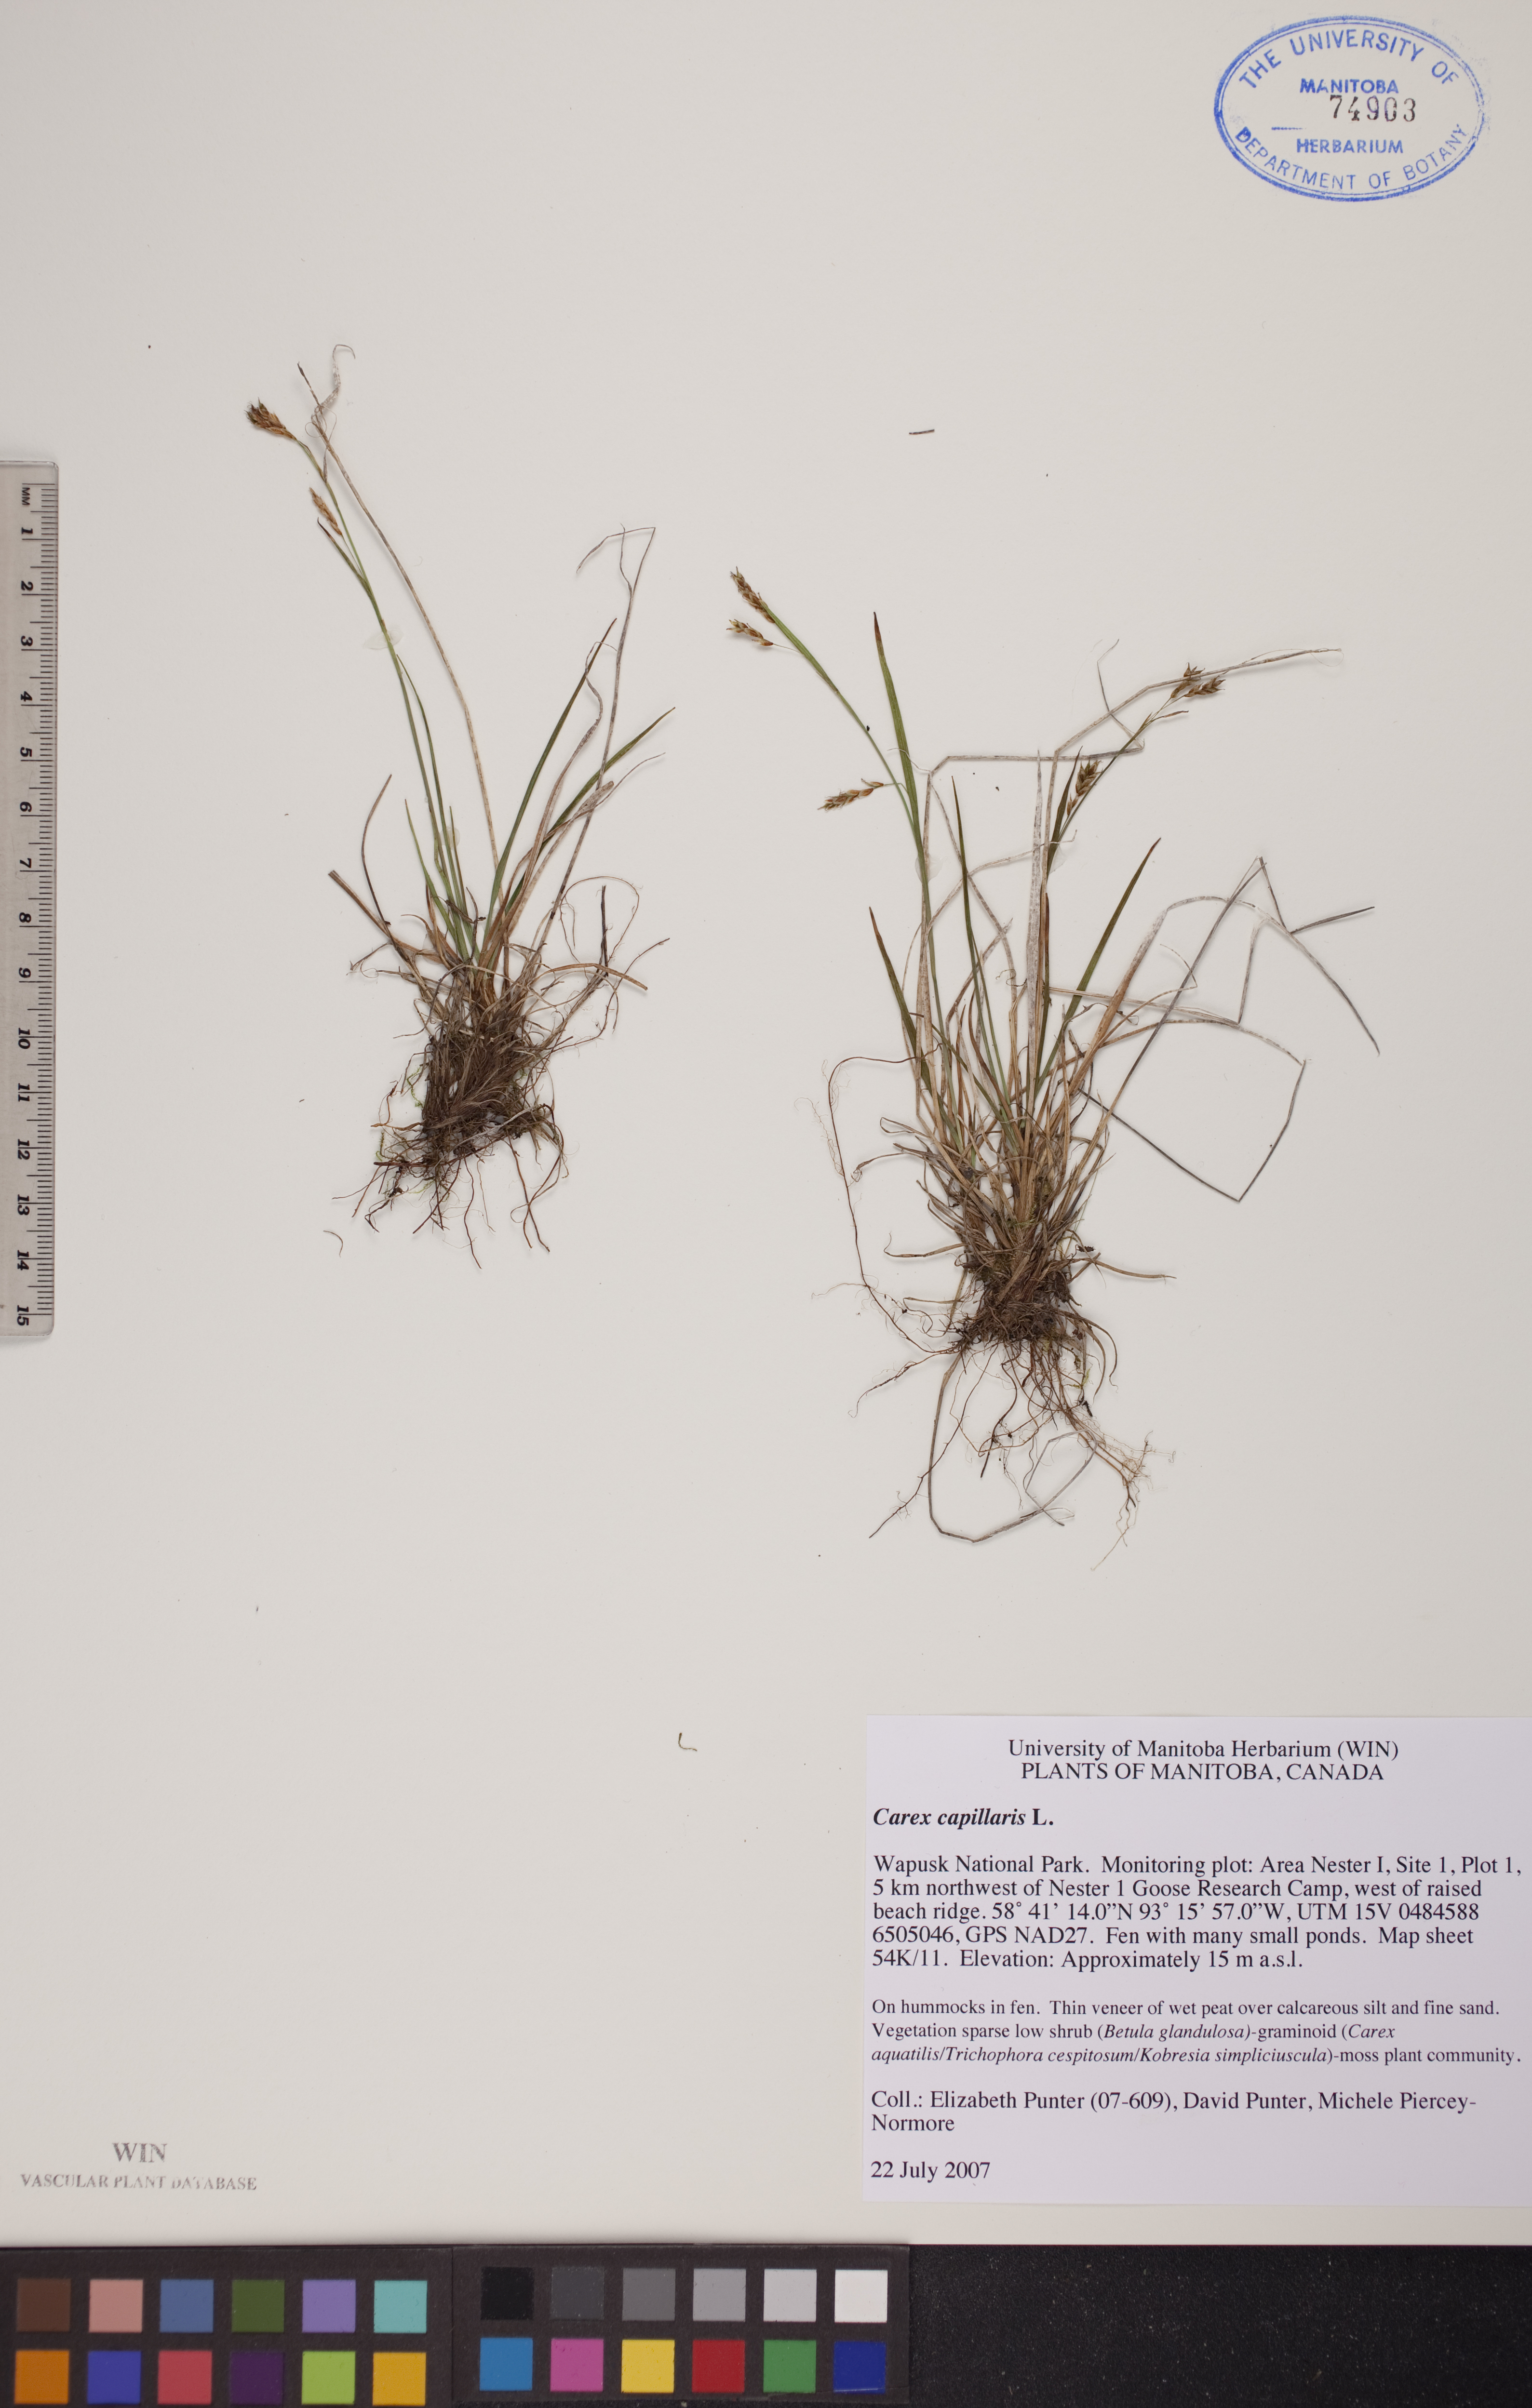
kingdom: Plantae
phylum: Tracheophyta
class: Liliopsida
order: Poales
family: Cyperaceae
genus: Carex
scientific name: Carex capillaris
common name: Hair sedge
